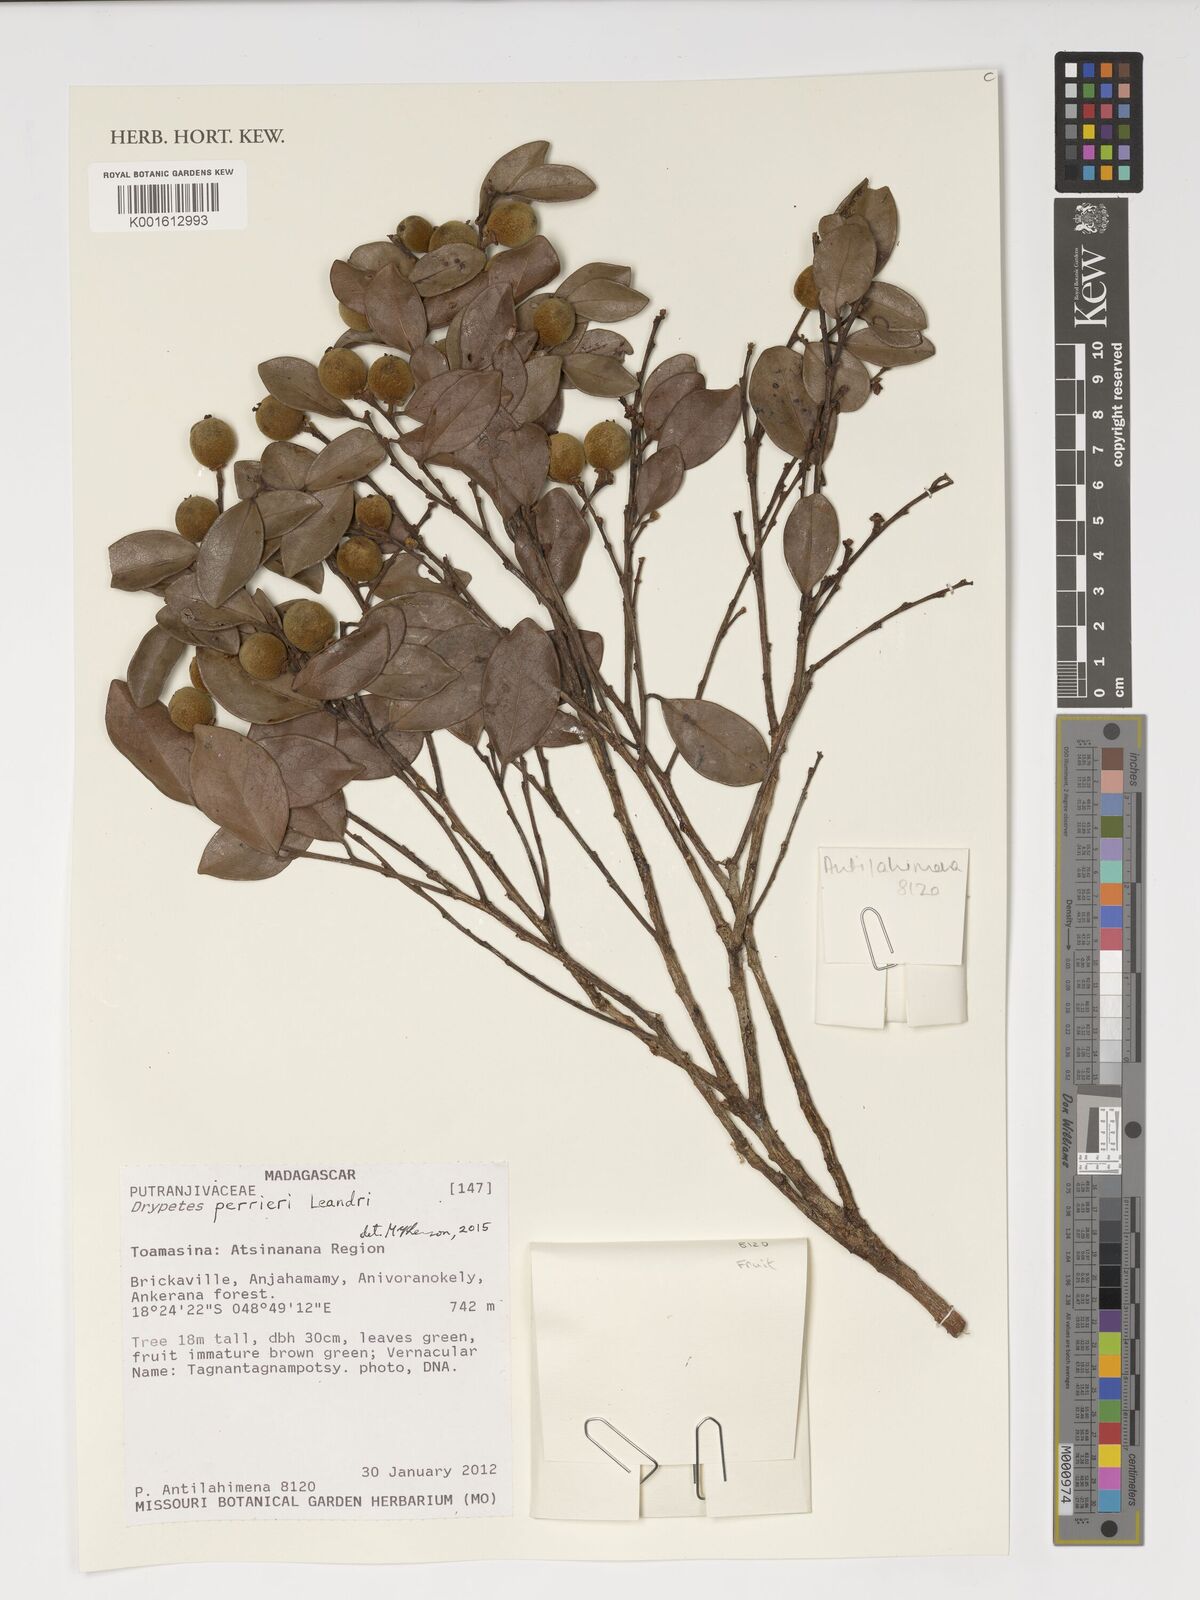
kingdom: Plantae
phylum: Tracheophyta
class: Magnoliopsida
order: Malpighiales
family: Putranjivaceae
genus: Drypetes
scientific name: Drypetes perrieri
